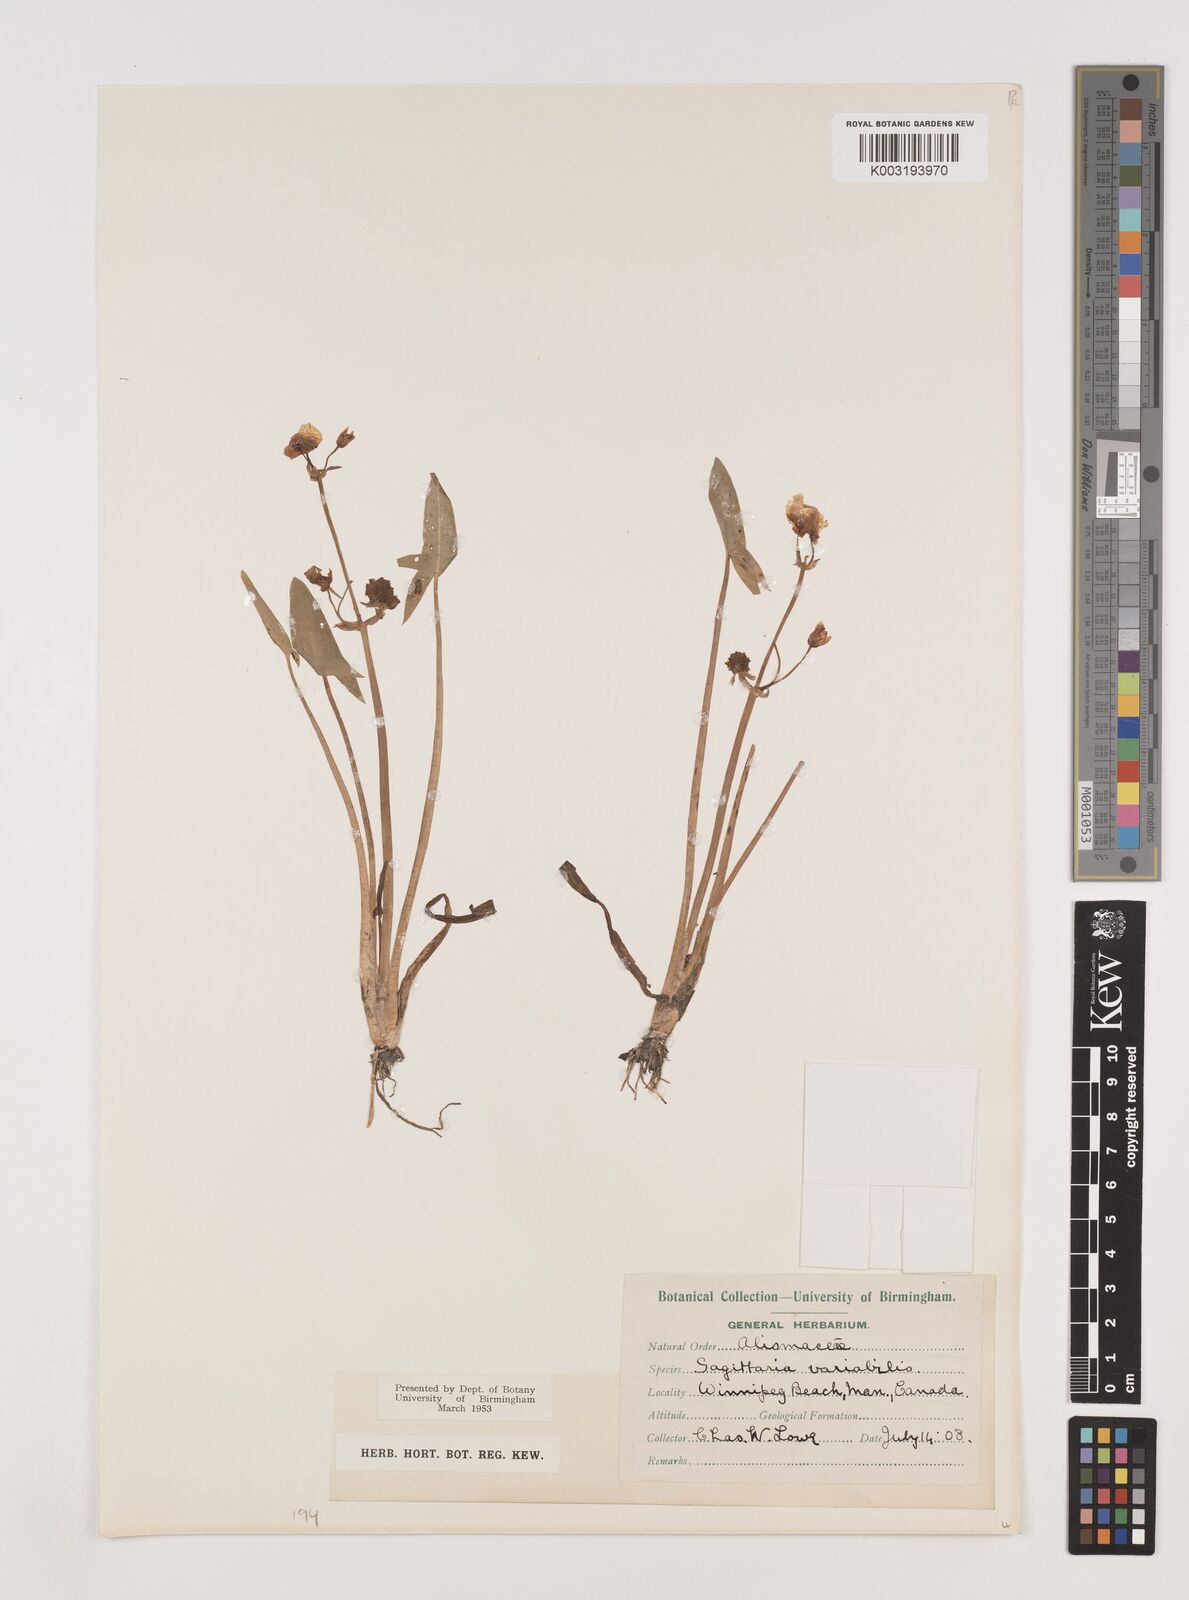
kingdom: Plantae
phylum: Tracheophyta
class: Liliopsida
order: Alismatales
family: Alismataceae
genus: Sagittaria
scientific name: Sagittaria latifolia
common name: Duck-potato
